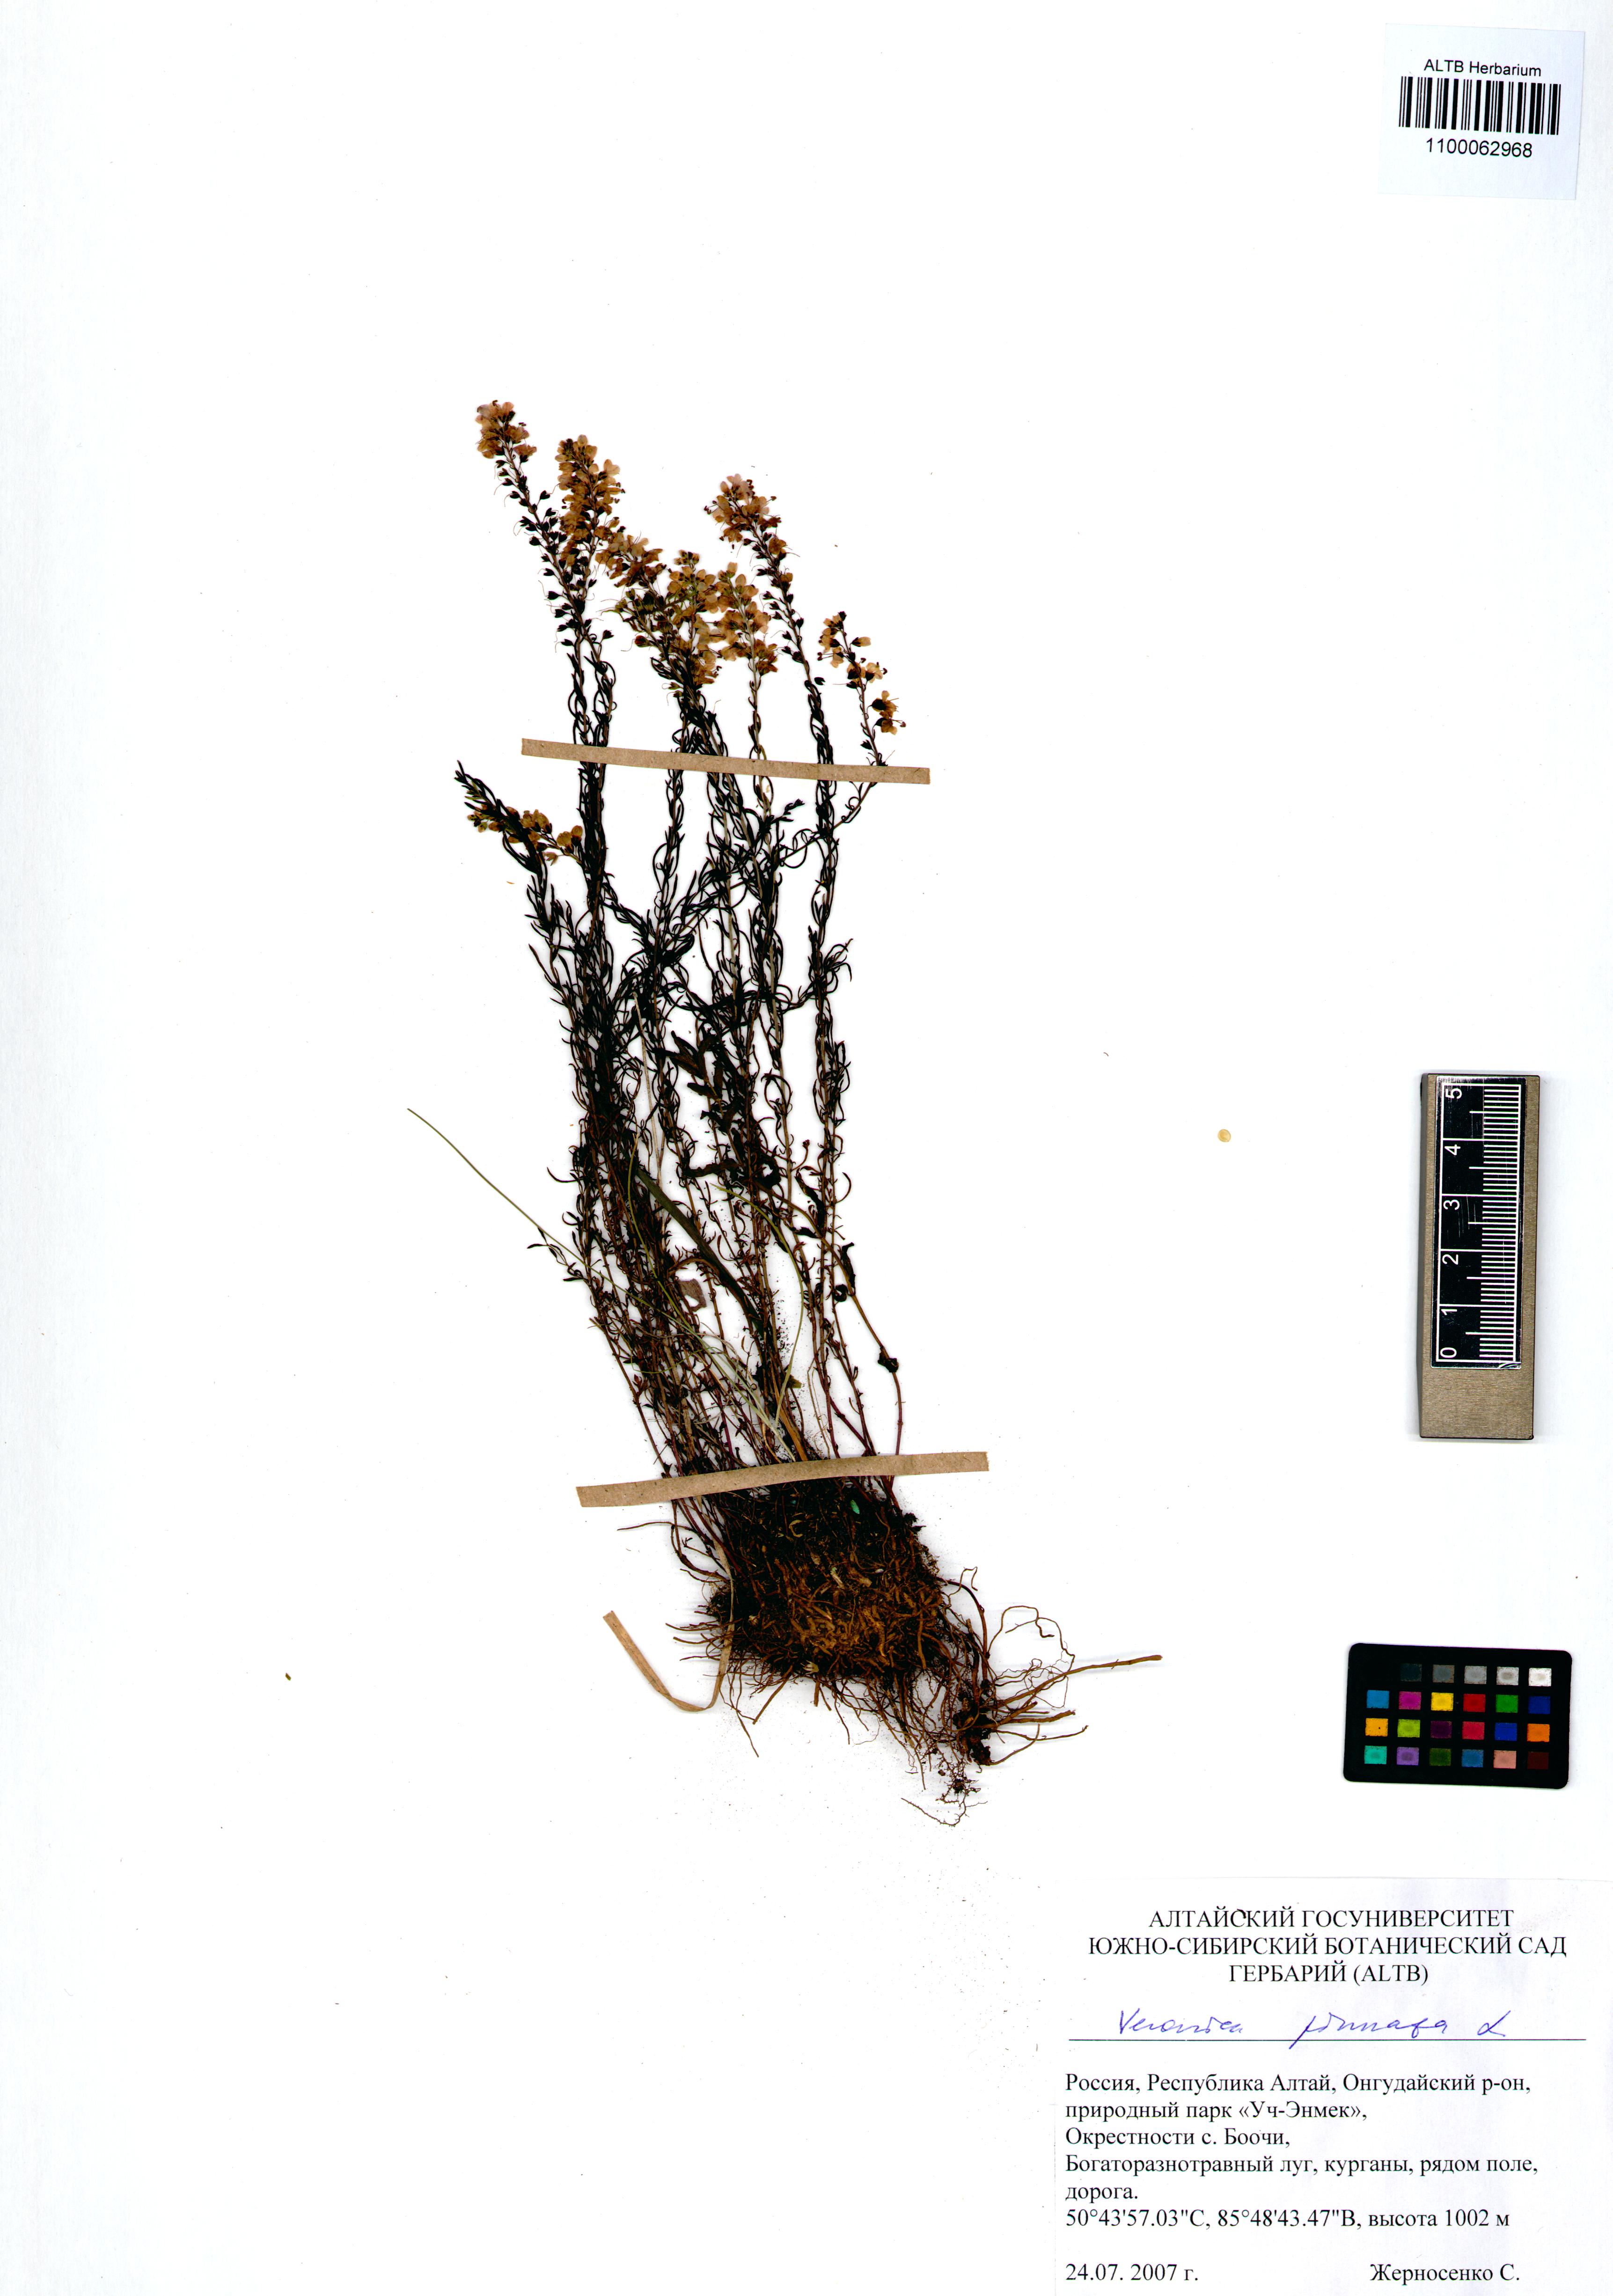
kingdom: Plantae
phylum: Tracheophyta
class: Magnoliopsida
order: Lamiales
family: Plantaginaceae
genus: Veronica
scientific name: Veronica pinnata
